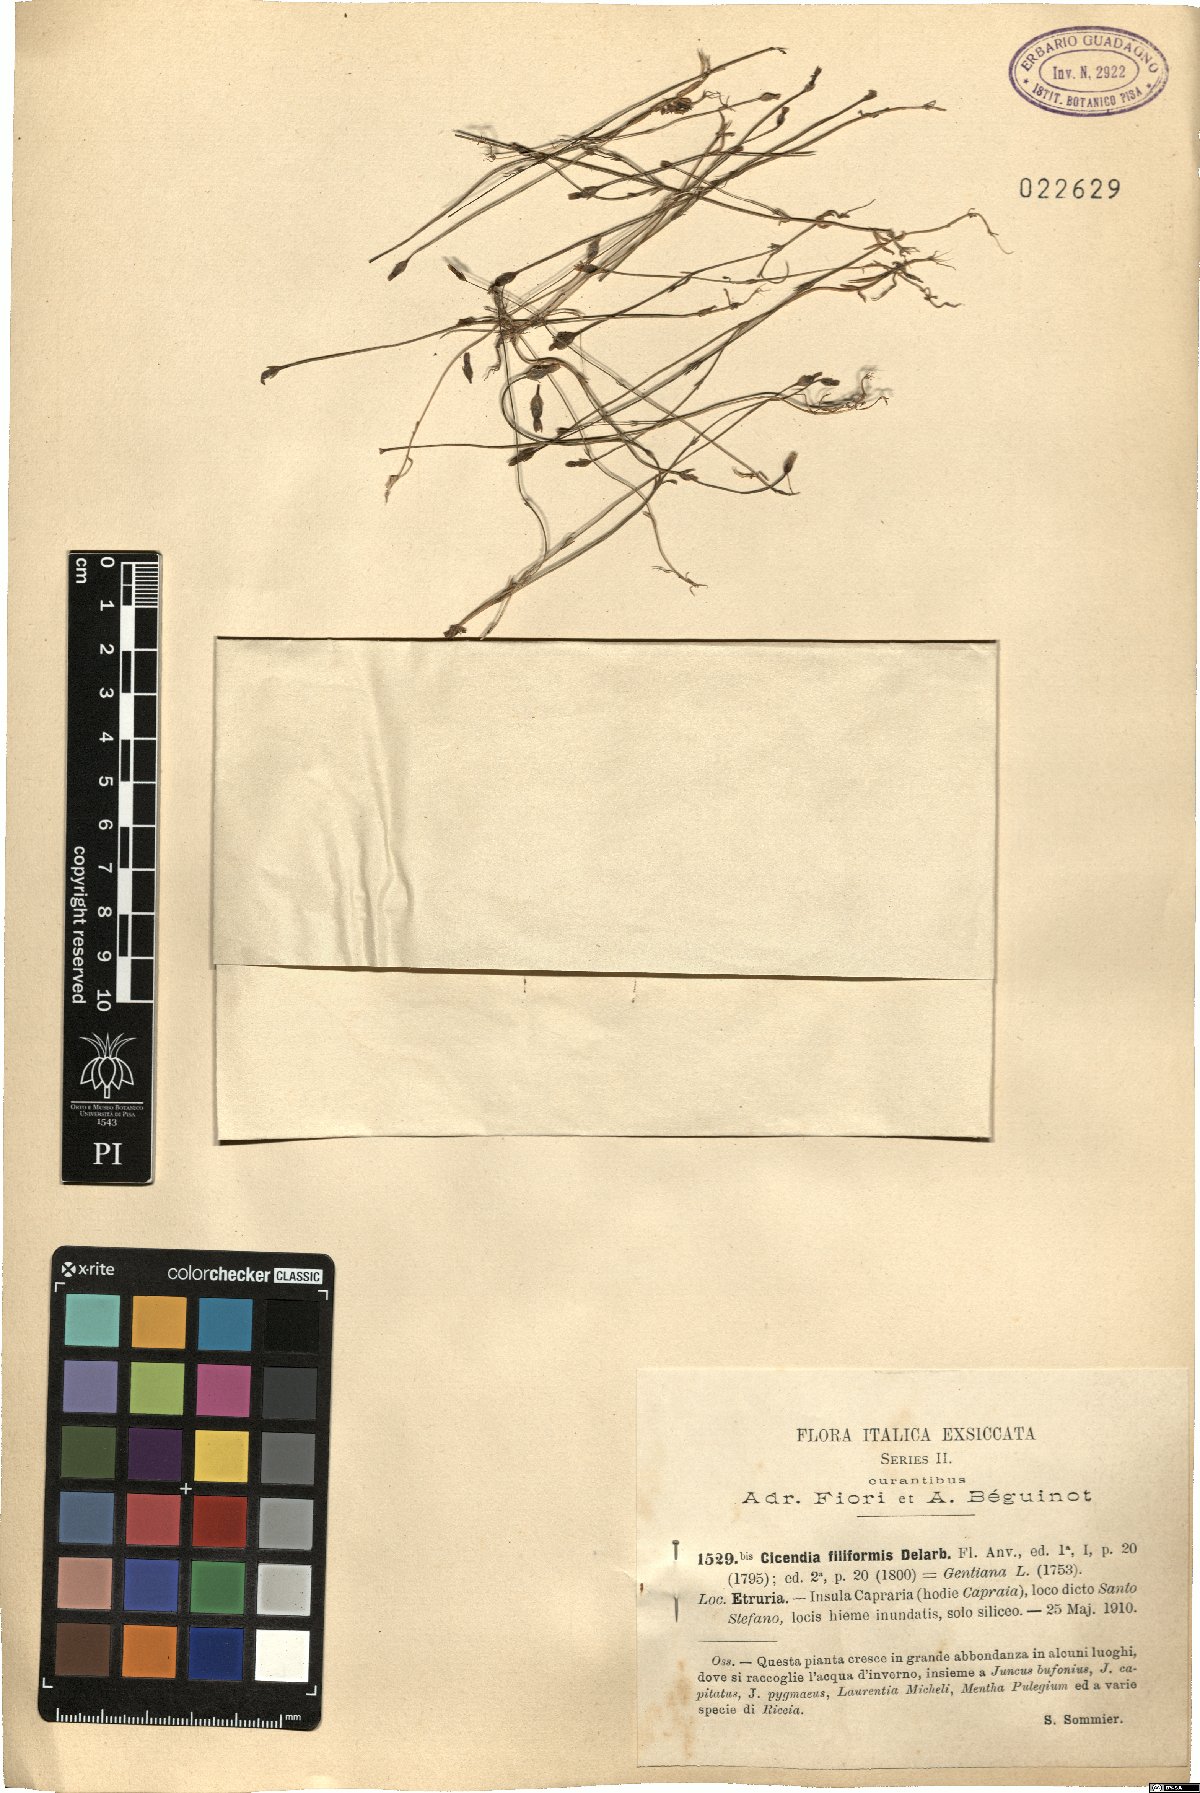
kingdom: Plantae
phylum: Tracheophyta
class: Magnoliopsida
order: Gentianales
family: Gentianaceae
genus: Cicendia
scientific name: Cicendia filiformis
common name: Yellow centaury
